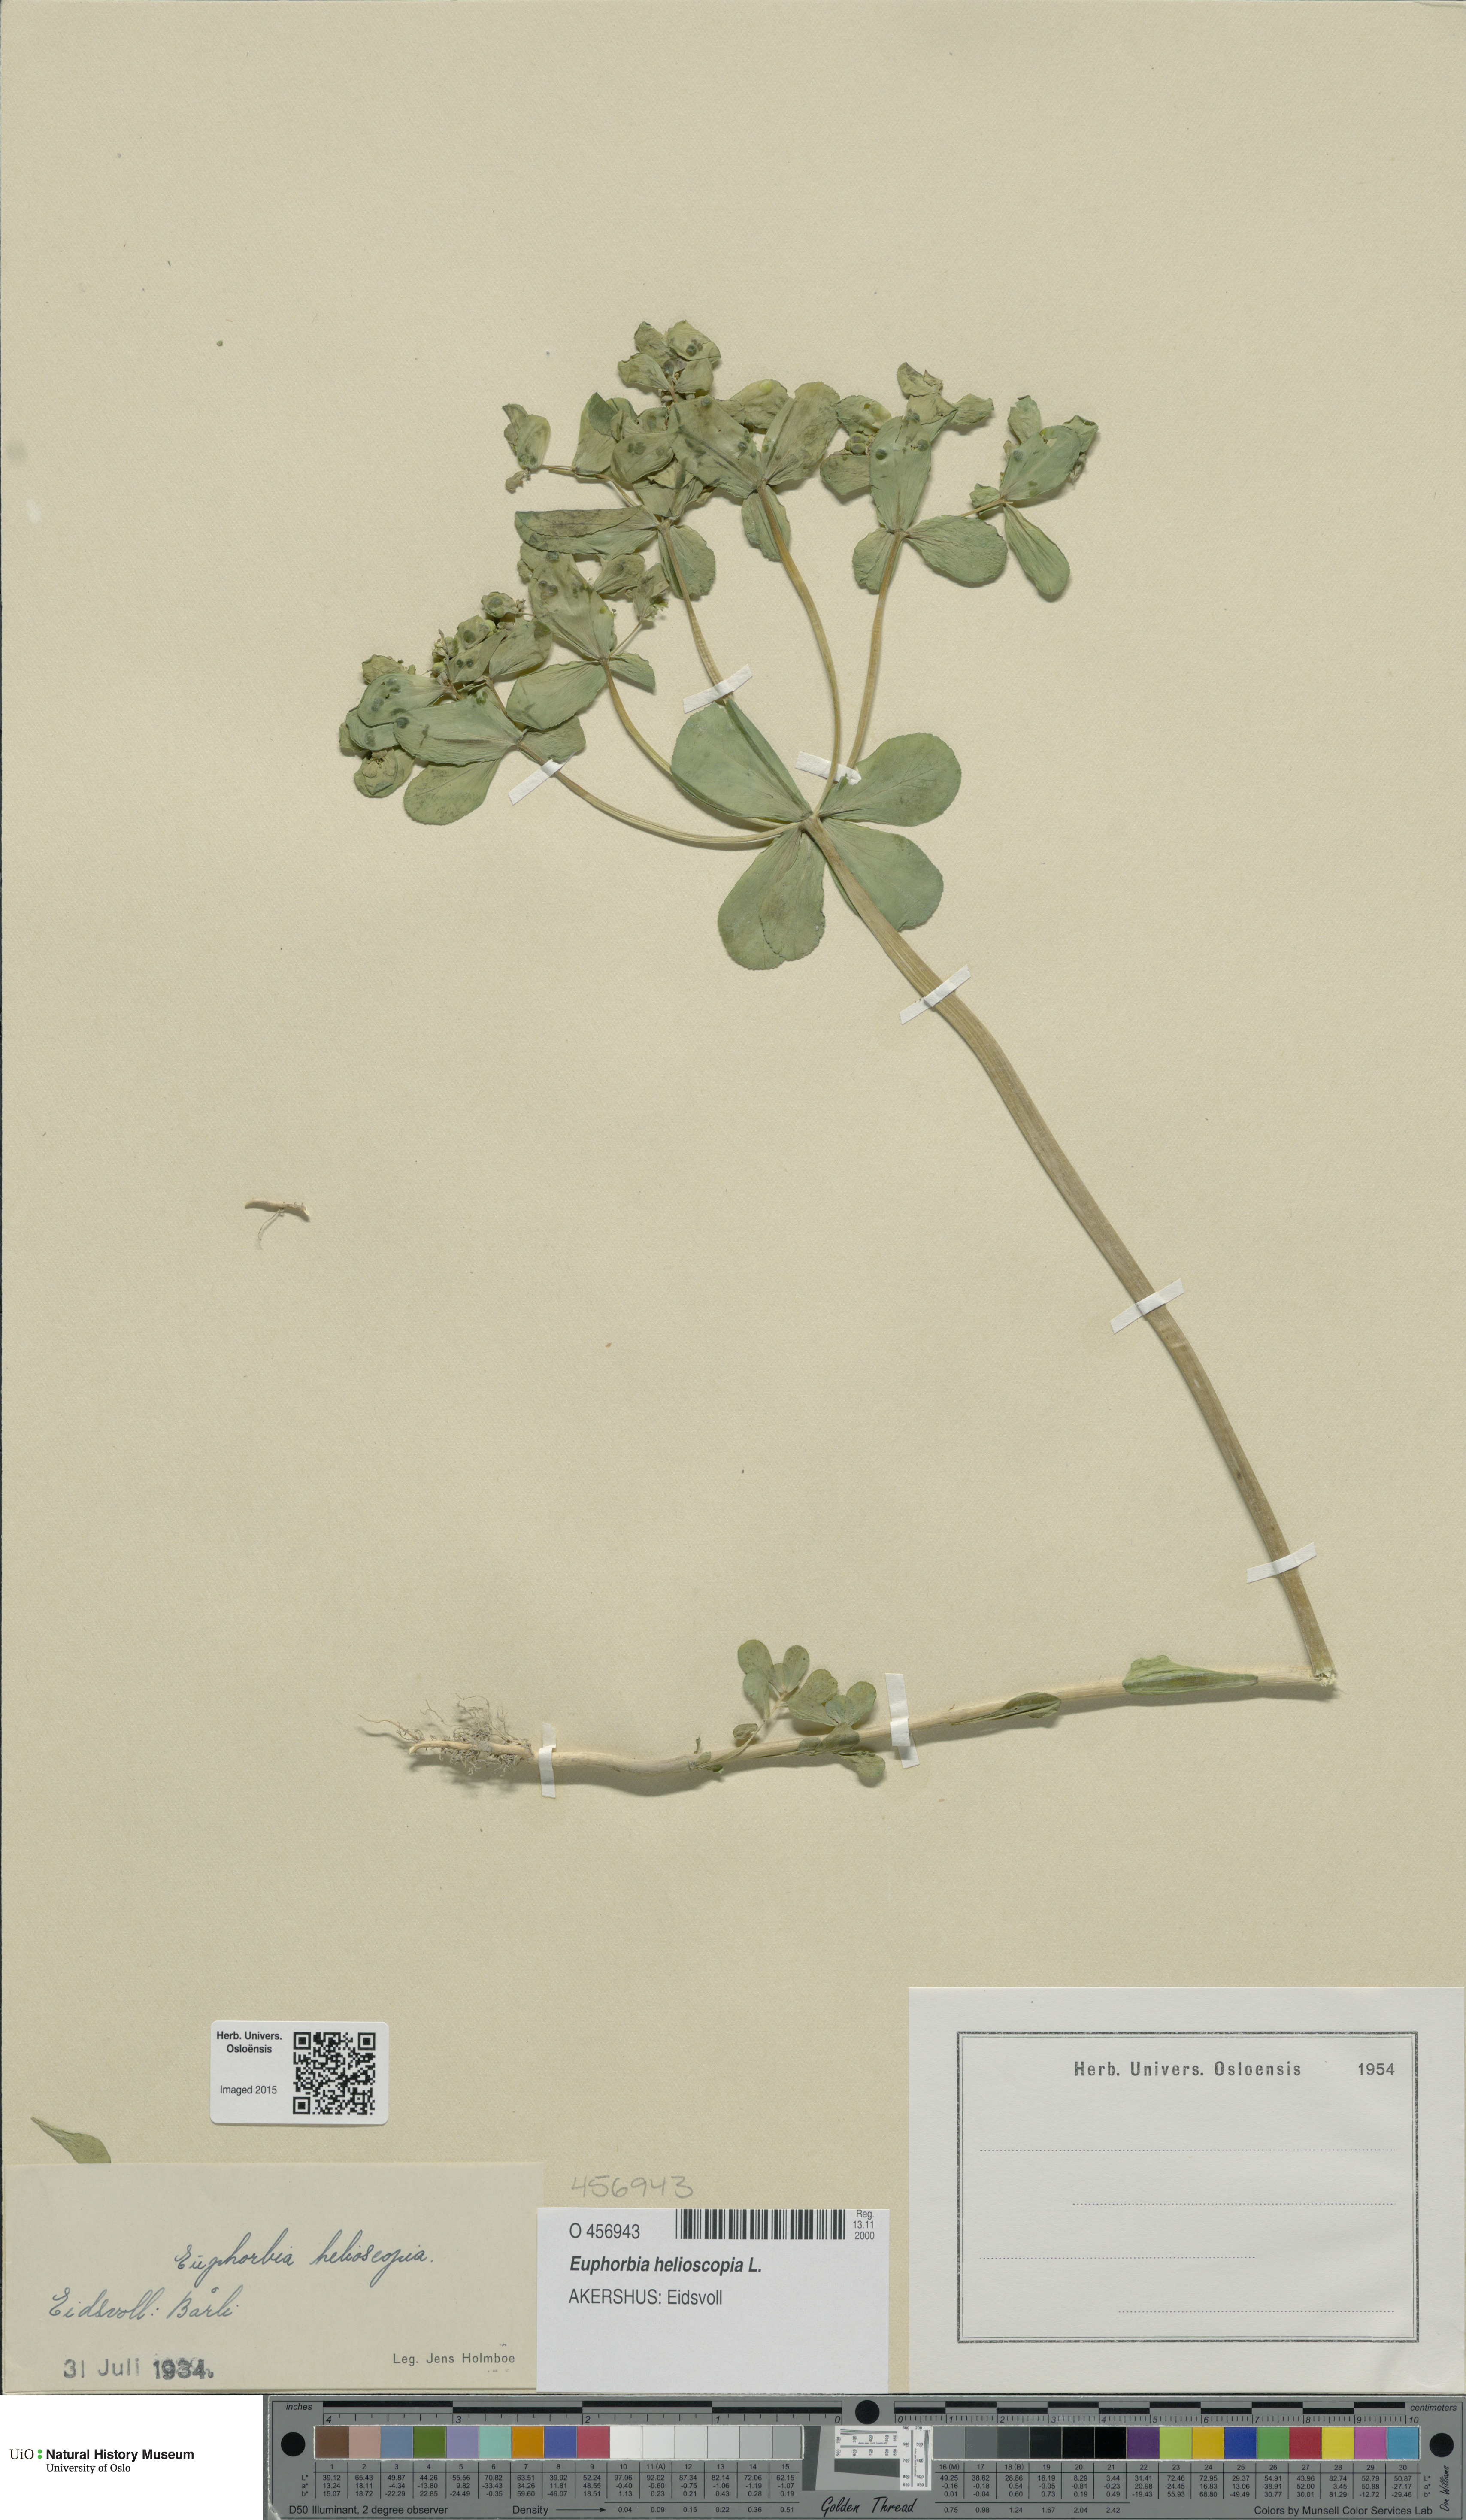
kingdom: Plantae
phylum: Tracheophyta
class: Magnoliopsida
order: Malpighiales
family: Euphorbiaceae
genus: Euphorbia
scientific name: Euphorbia helioscopia
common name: Sun spurge
